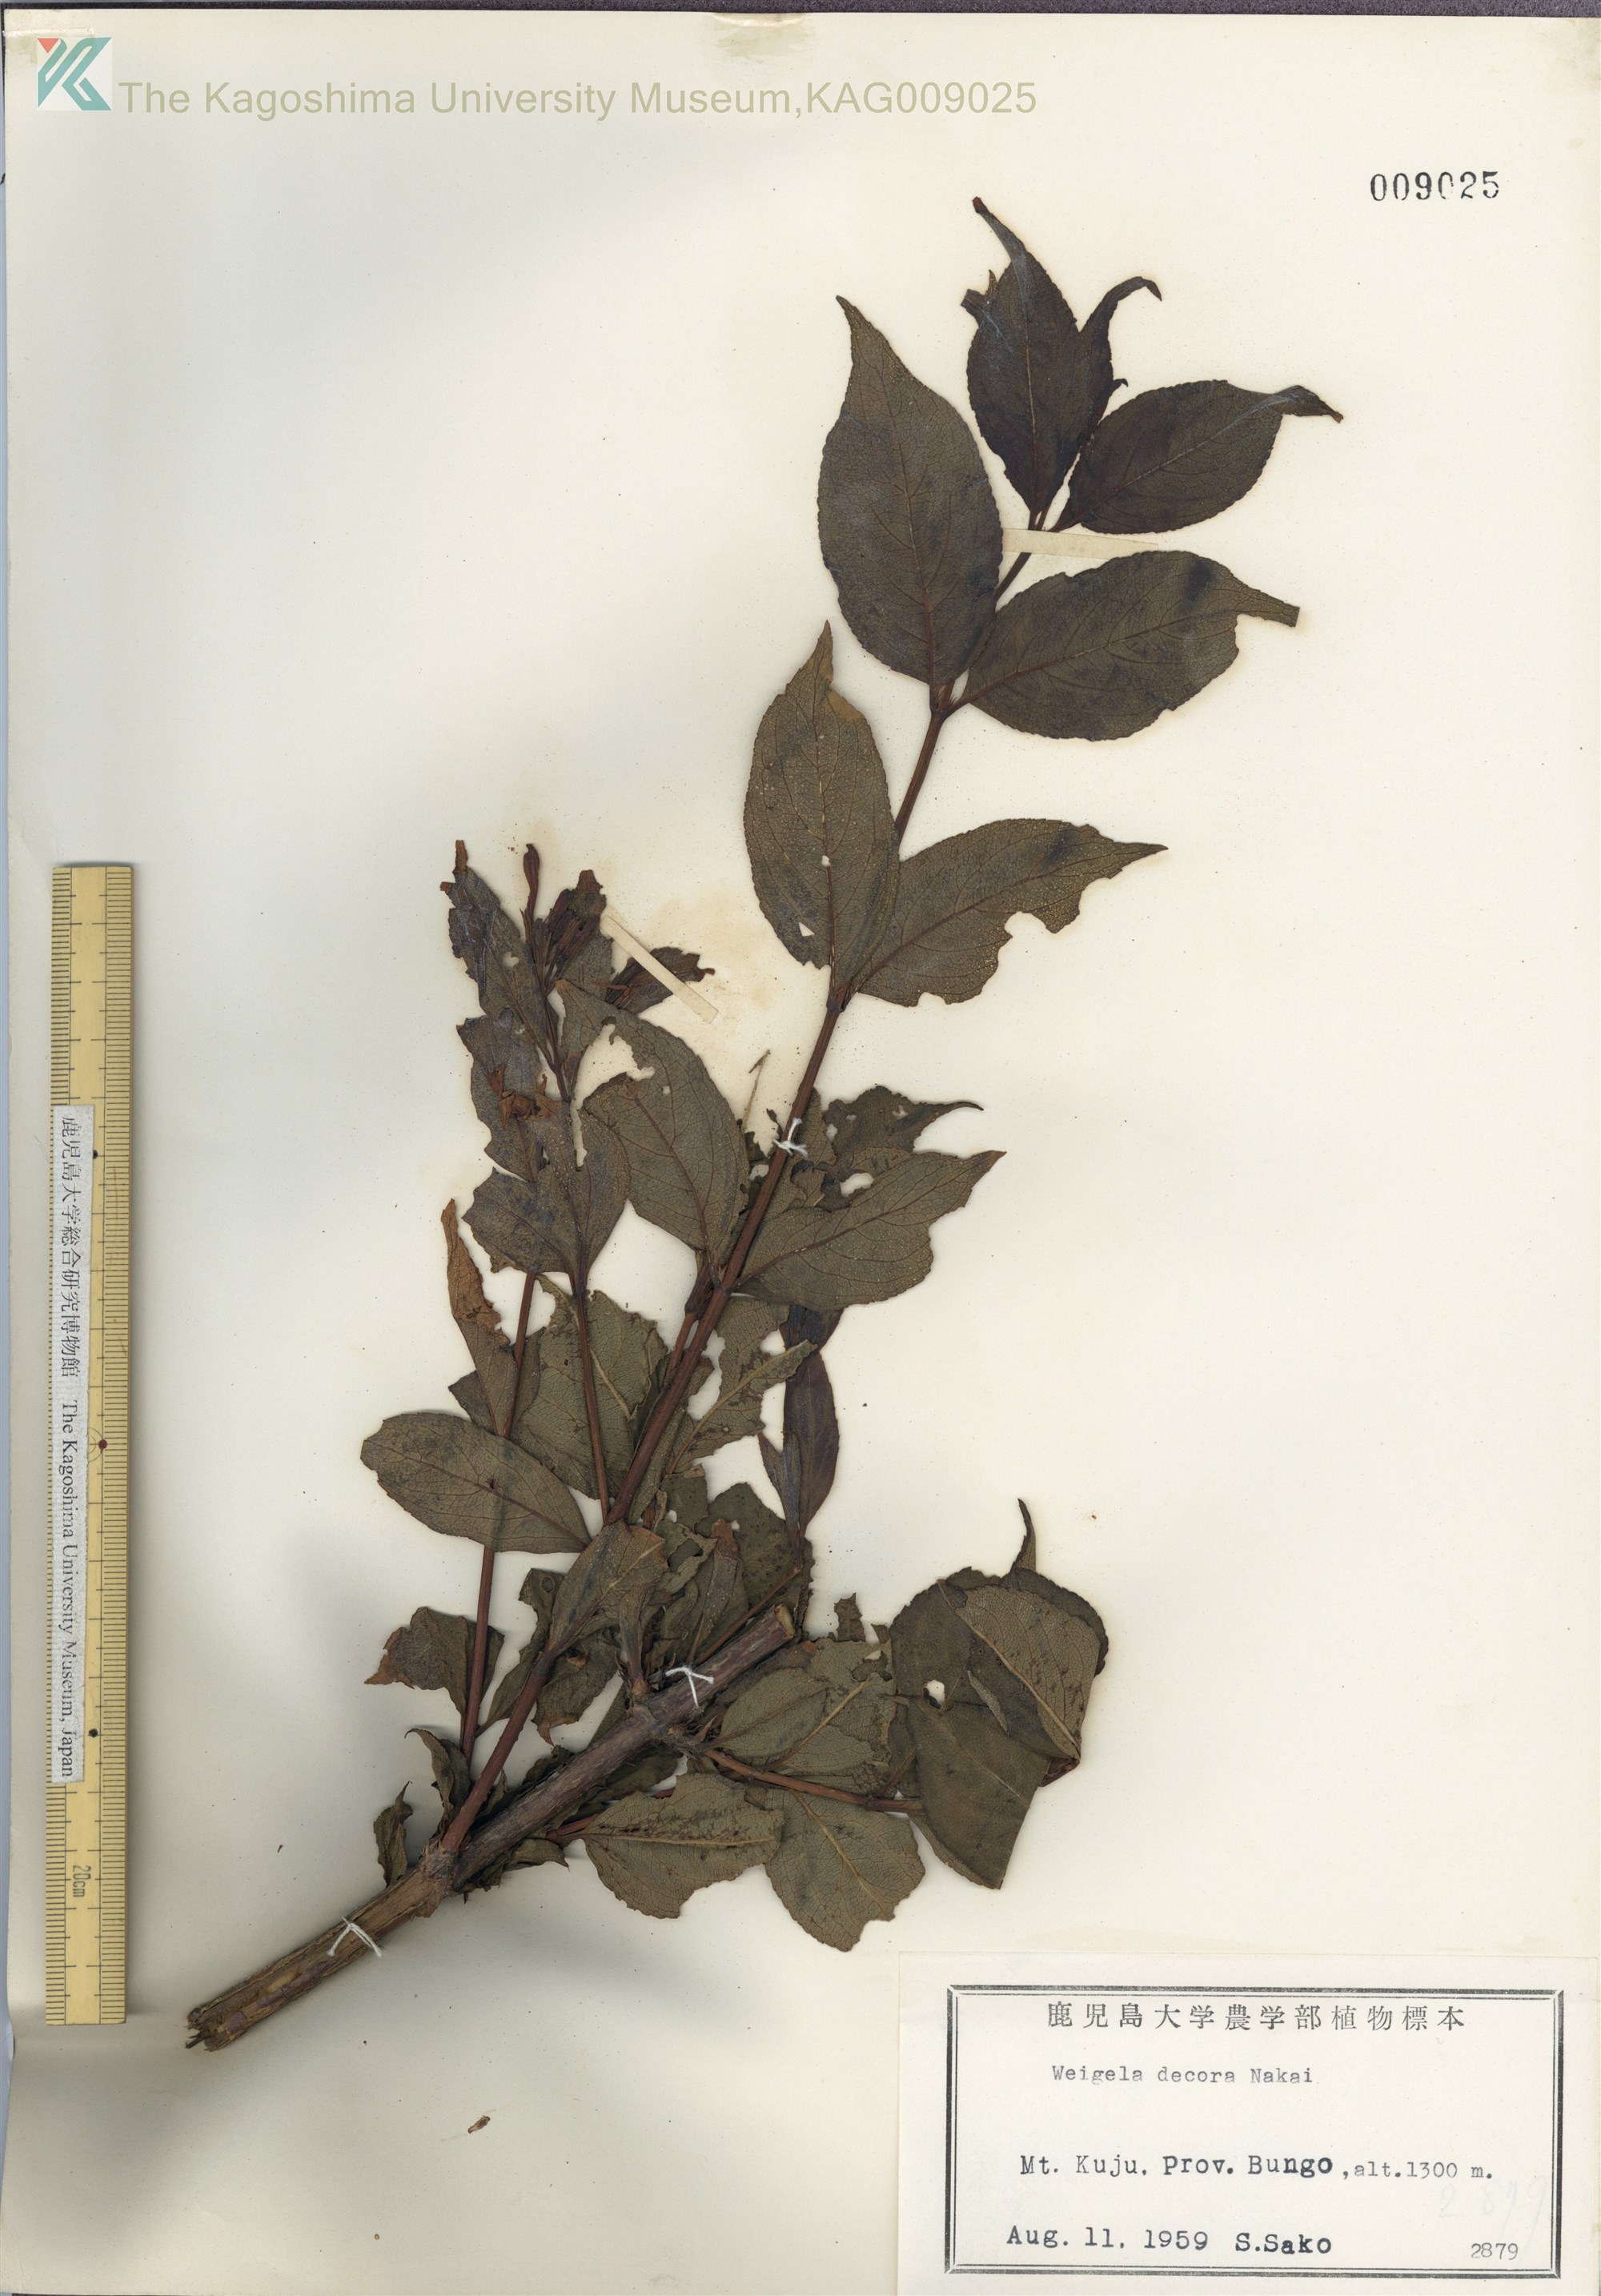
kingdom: Plantae
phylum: Tracheophyta
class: Magnoliopsida
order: Dipsacales
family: Caprifoliaceae
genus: Weigela
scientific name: Weigela decora
